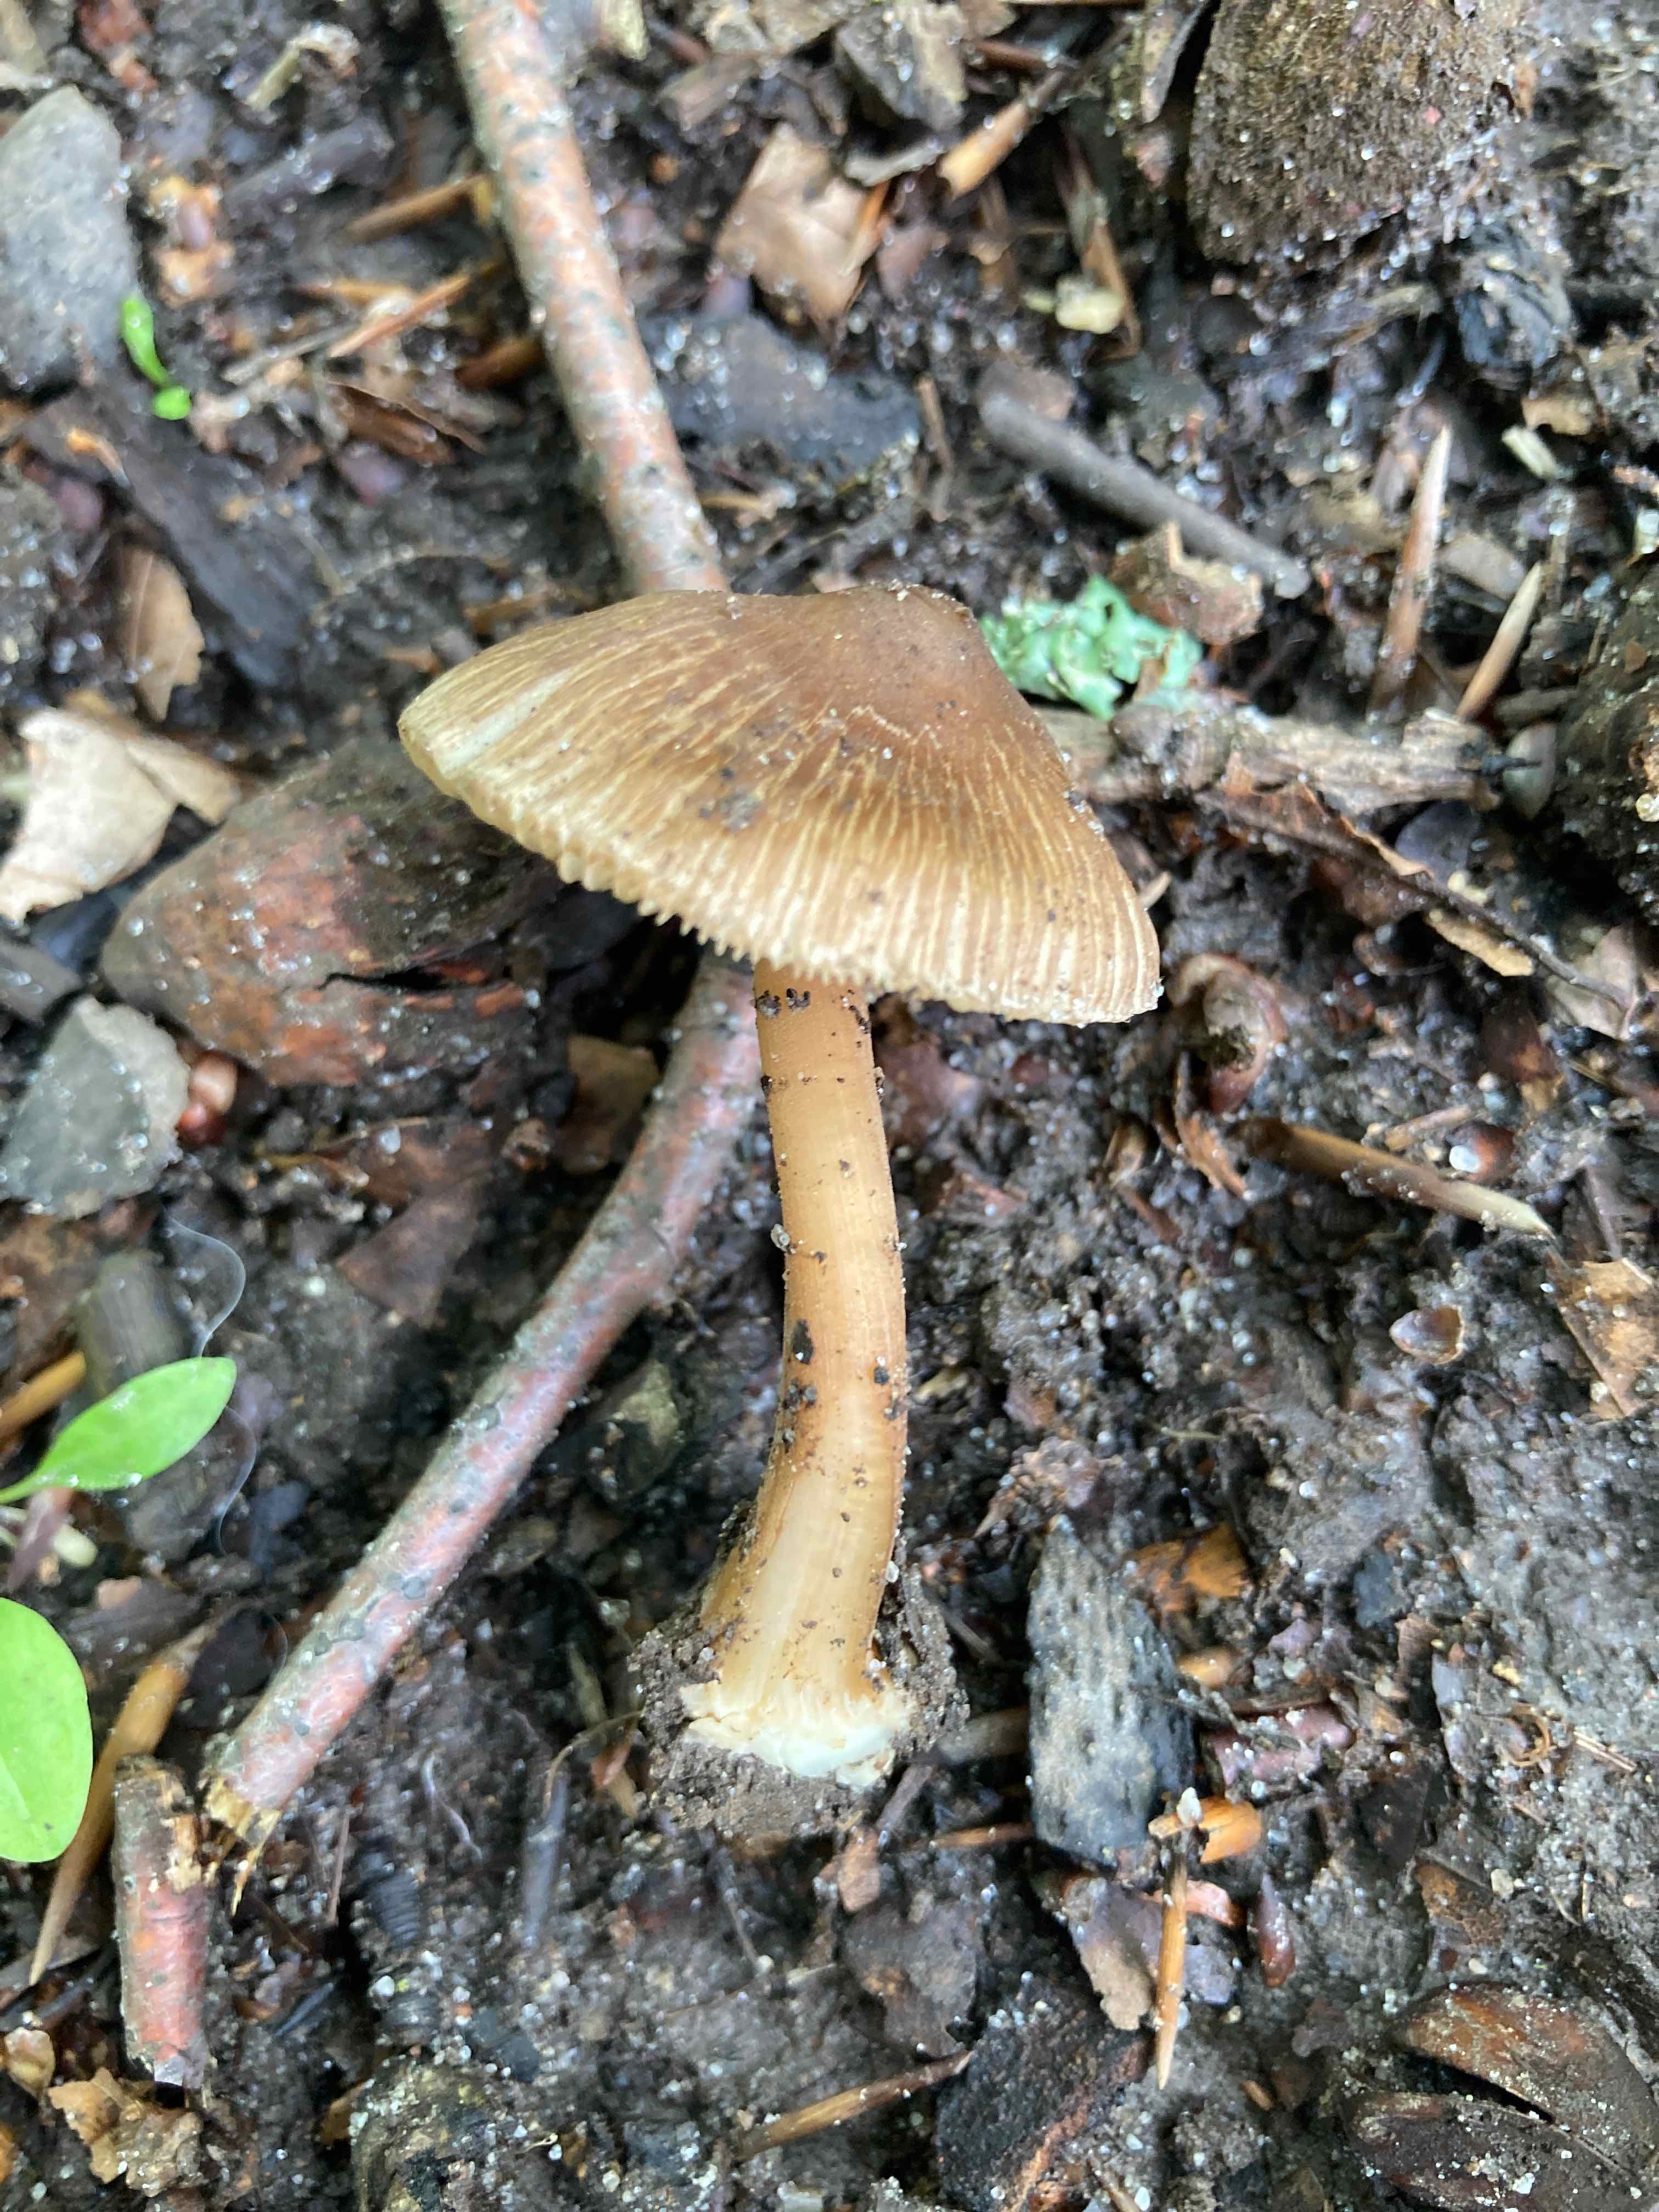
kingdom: Fungi
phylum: Basidiomycota
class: Agaricomycetes
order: Agaricales
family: Inocybaceae
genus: Inocybe
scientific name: Inocybe asterospora
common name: stjernesporet trævlhat
